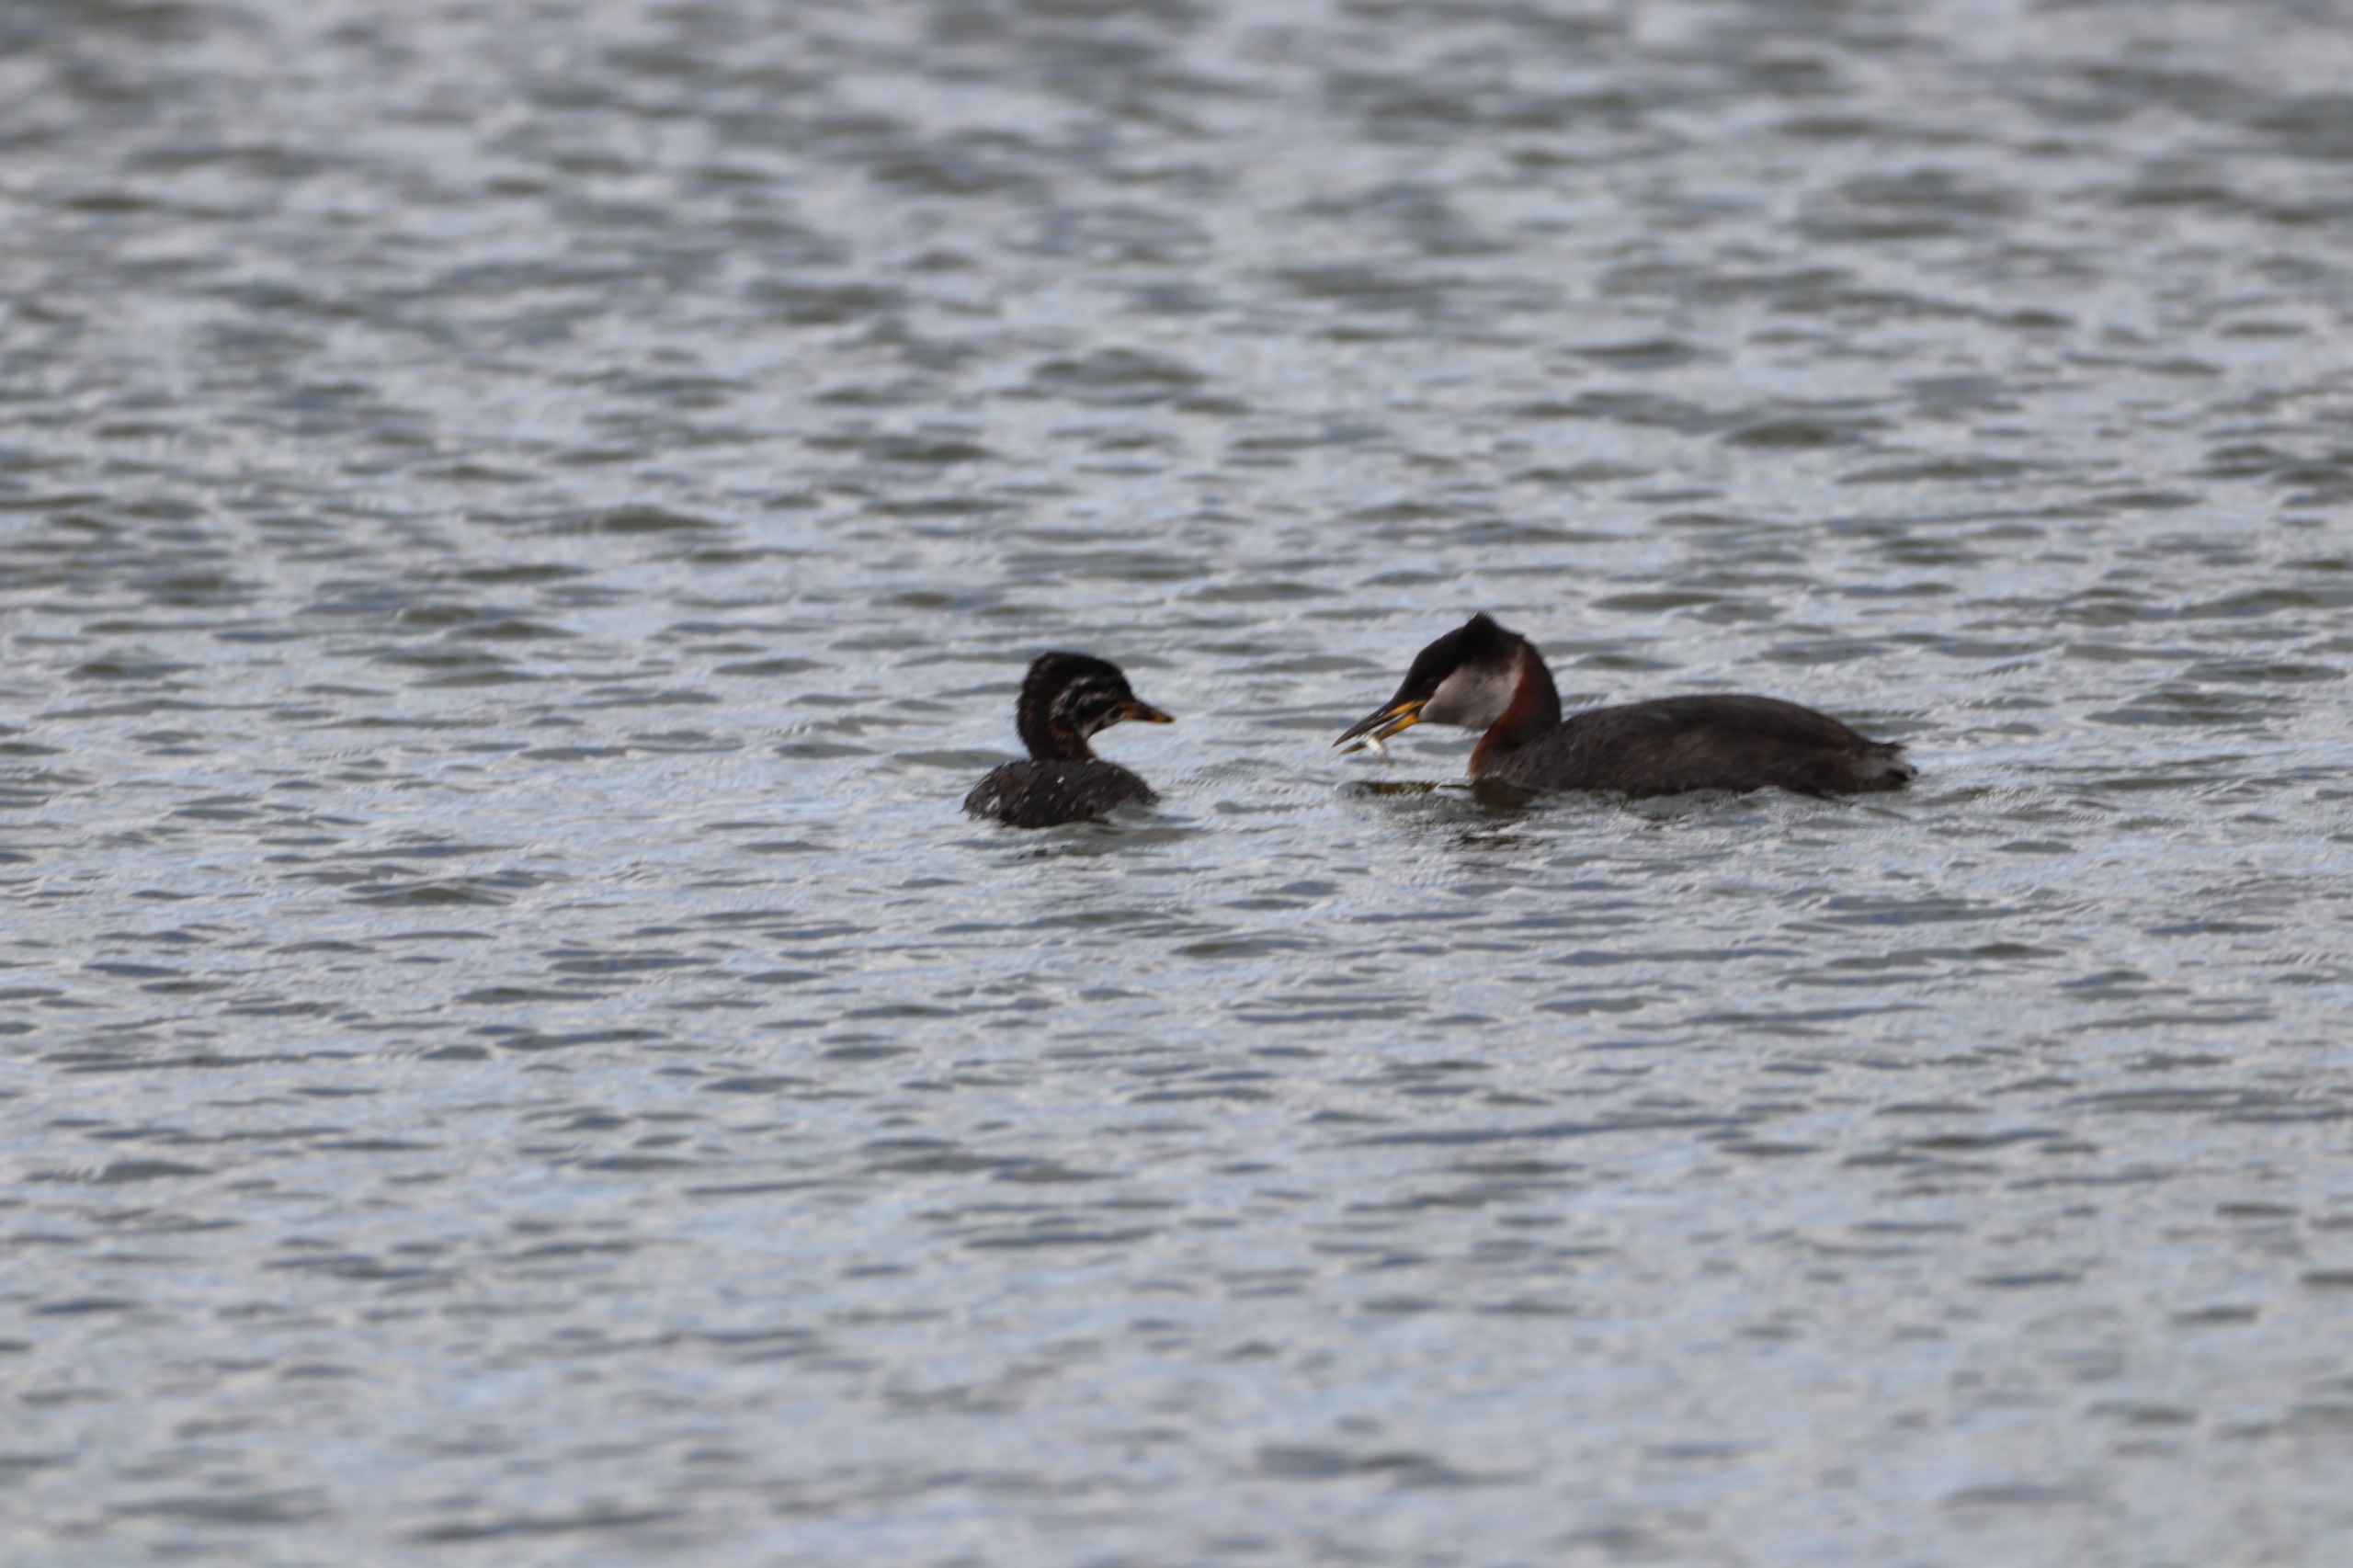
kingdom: Animalia
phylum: Chordata
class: Aves
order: Podicipediformes
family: Podicipedidae
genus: Podiceps
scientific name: Podiceps grisegena
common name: Gråstrubet lappedykker
